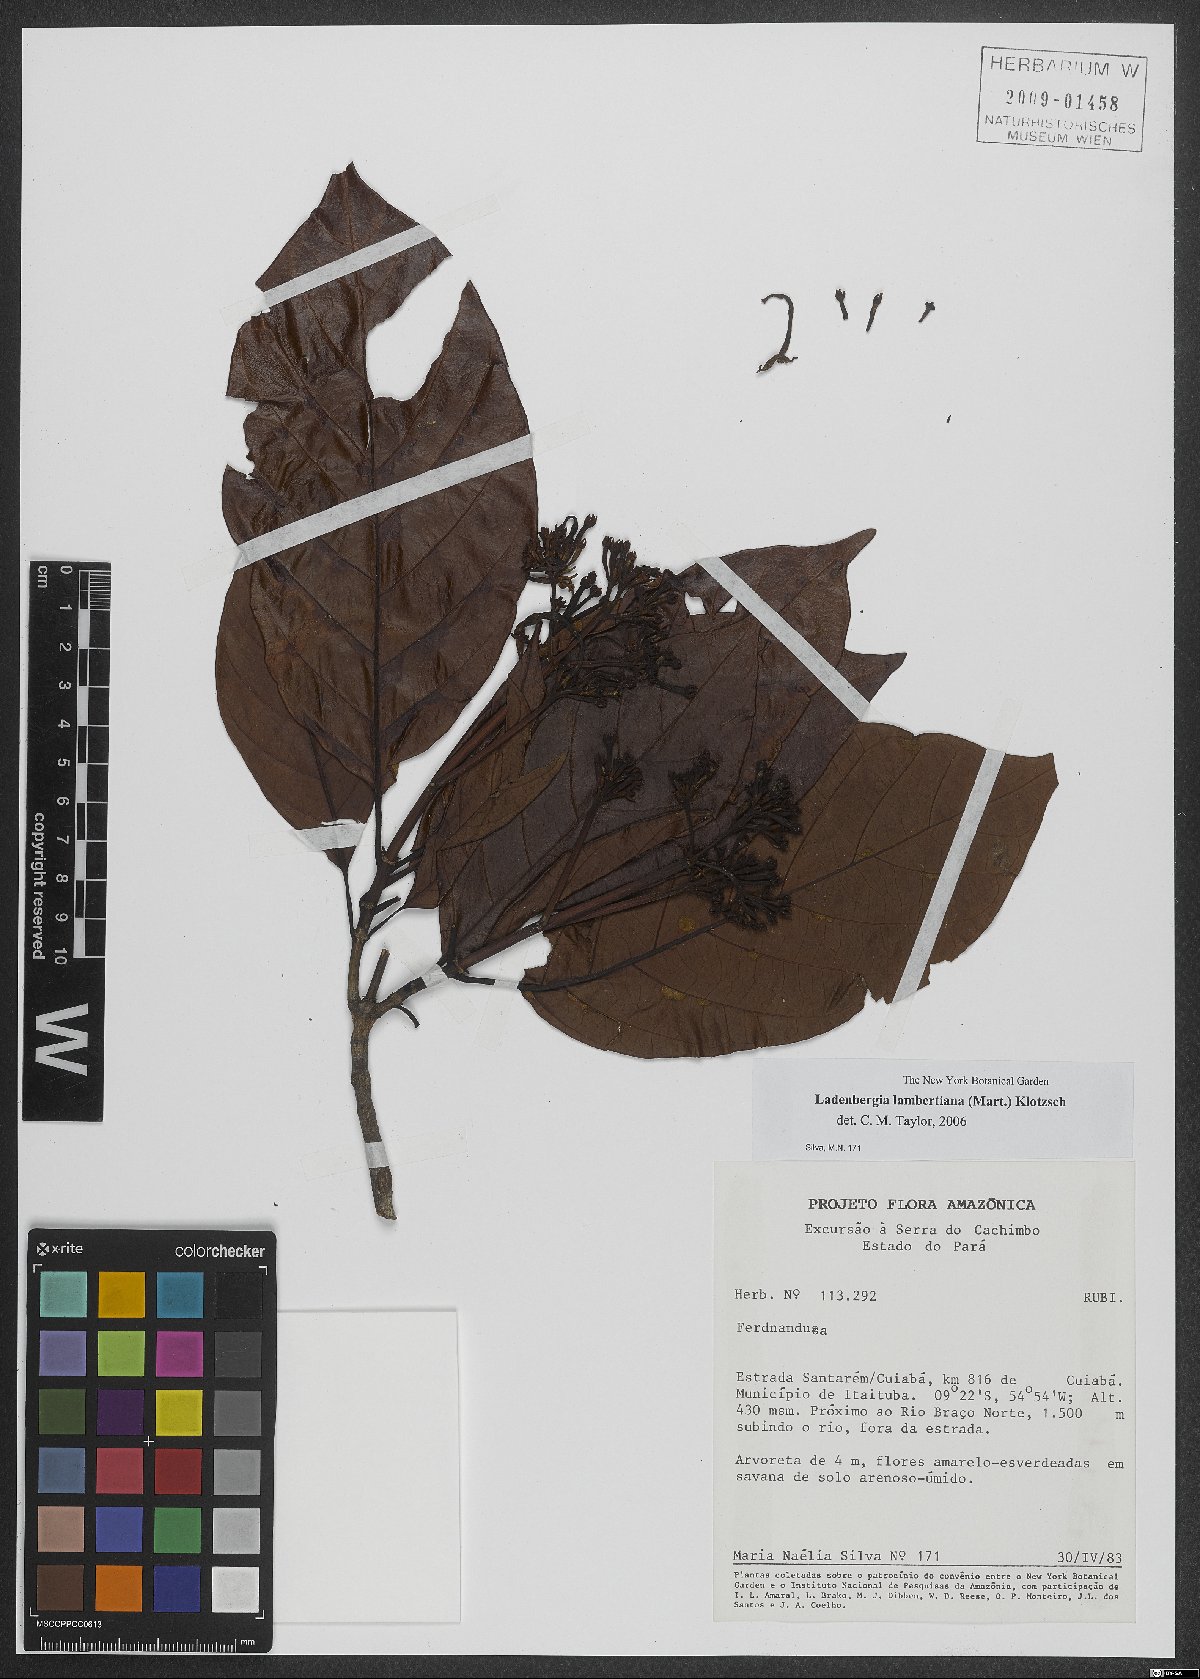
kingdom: Plantae
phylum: Tracheophyta
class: Magnoliopsida
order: Gentianales
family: Rubiaceae
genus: Ladenbergia
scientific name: Ladenbergia lambertiana
